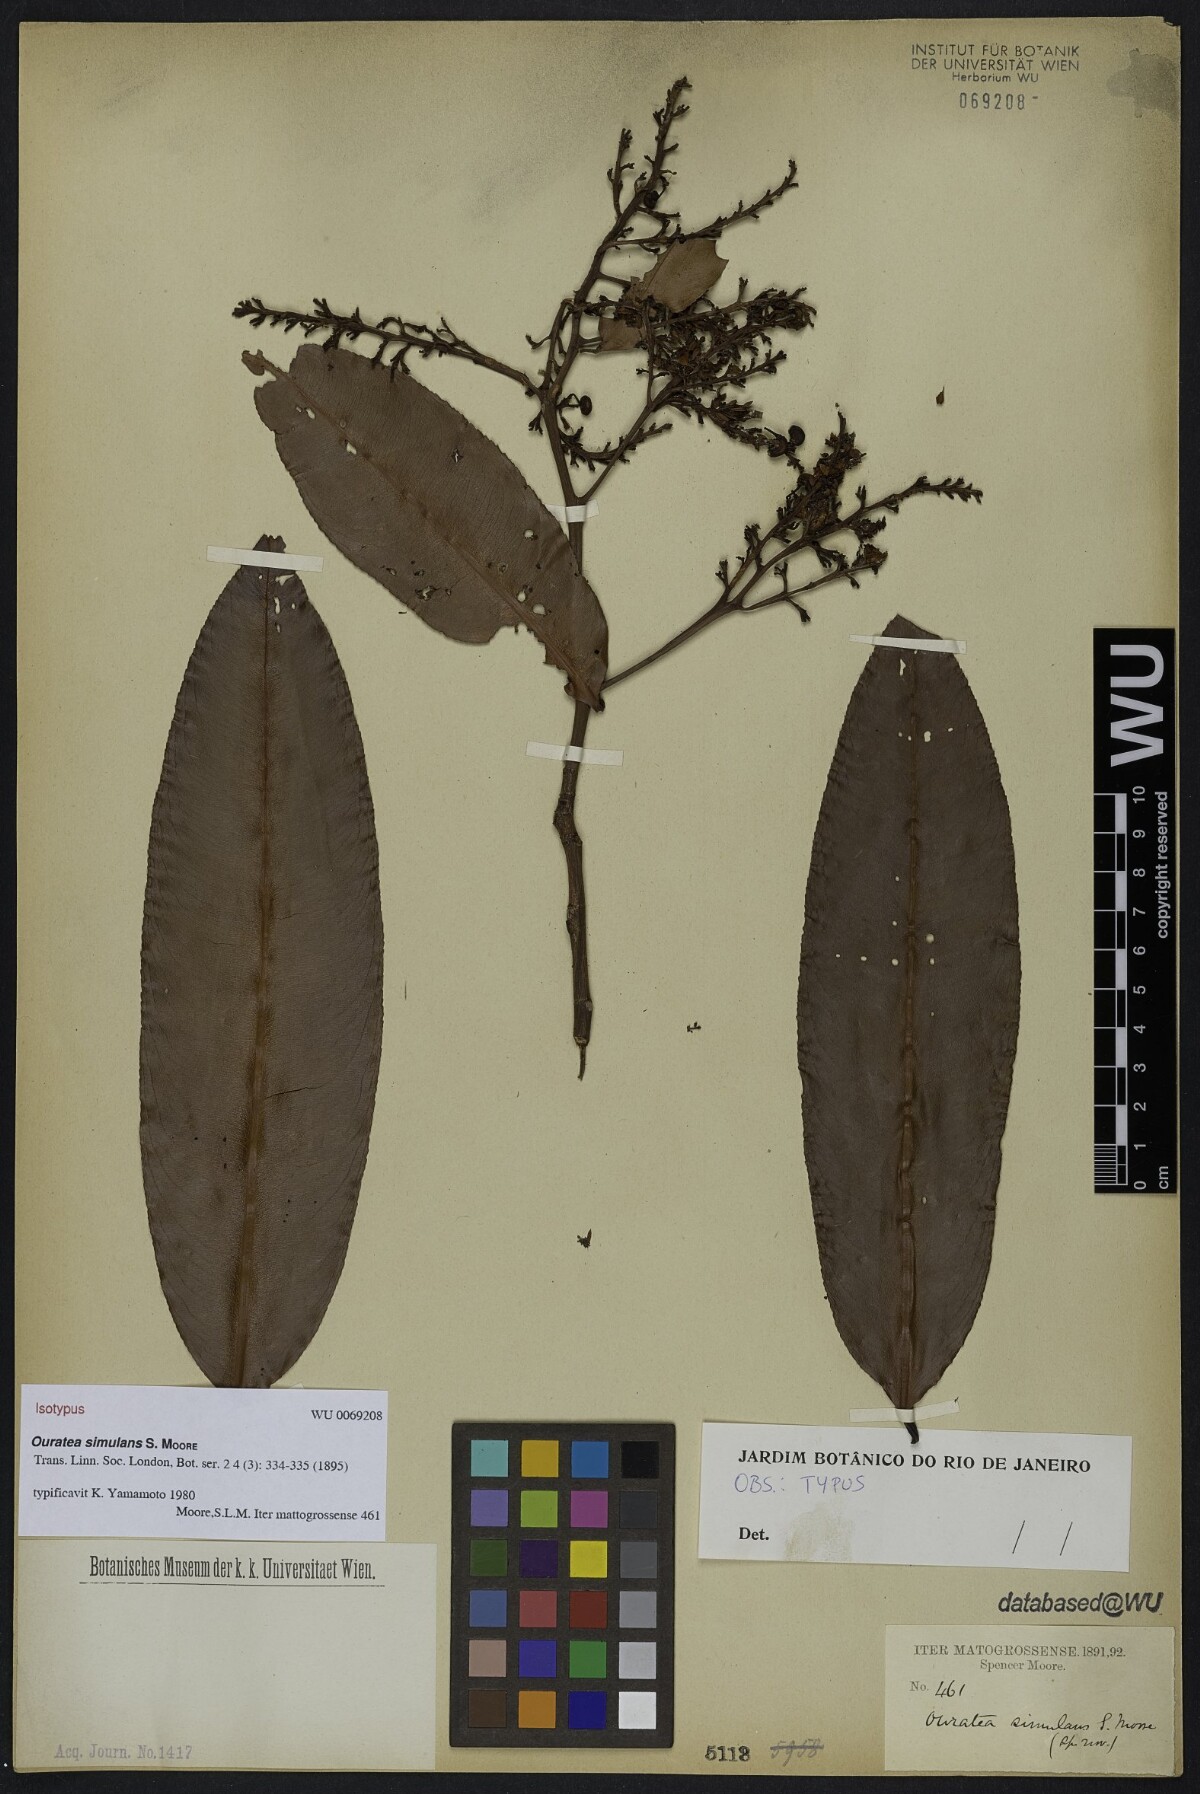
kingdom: Plantae
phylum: Tracheophyta
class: Magnoliopsida
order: Malpighiales
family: Ochnaceae
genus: Ouratea
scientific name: Ouratea simulans
